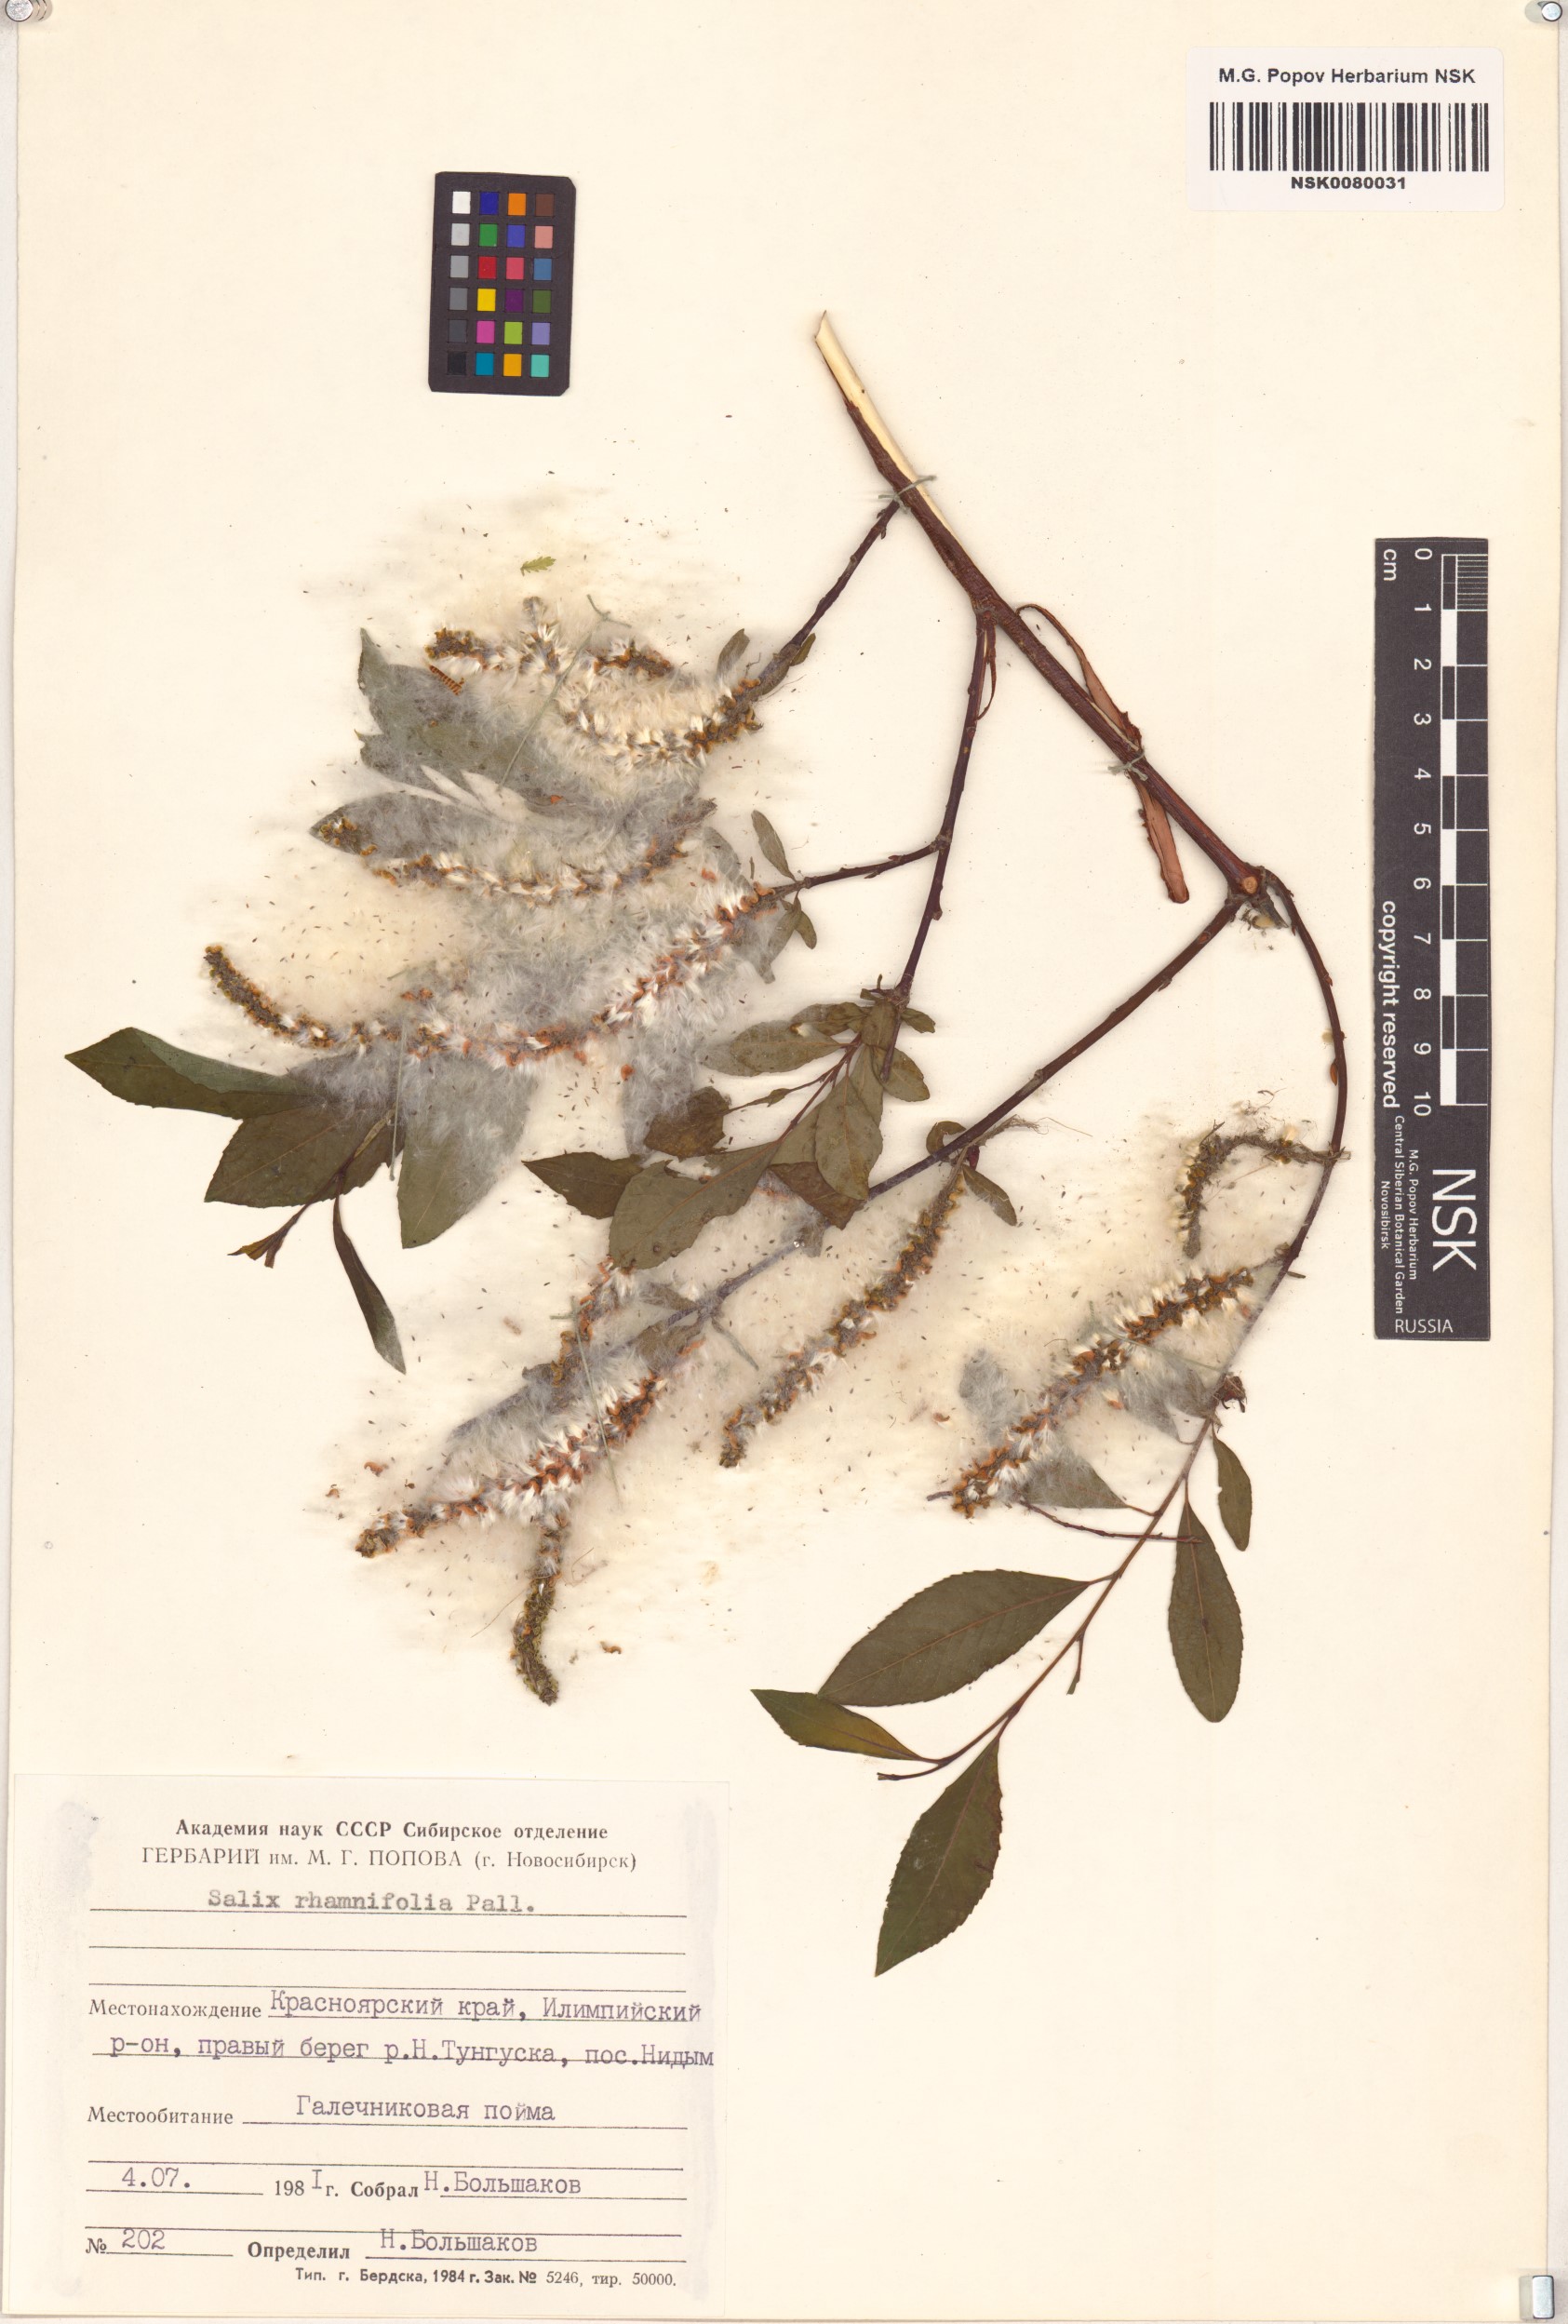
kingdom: Plantae
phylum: Tracheophyta
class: Magnoliopsida
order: Malpighiales
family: Salicaceae
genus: Salix
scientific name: Salix rhamnifolia
